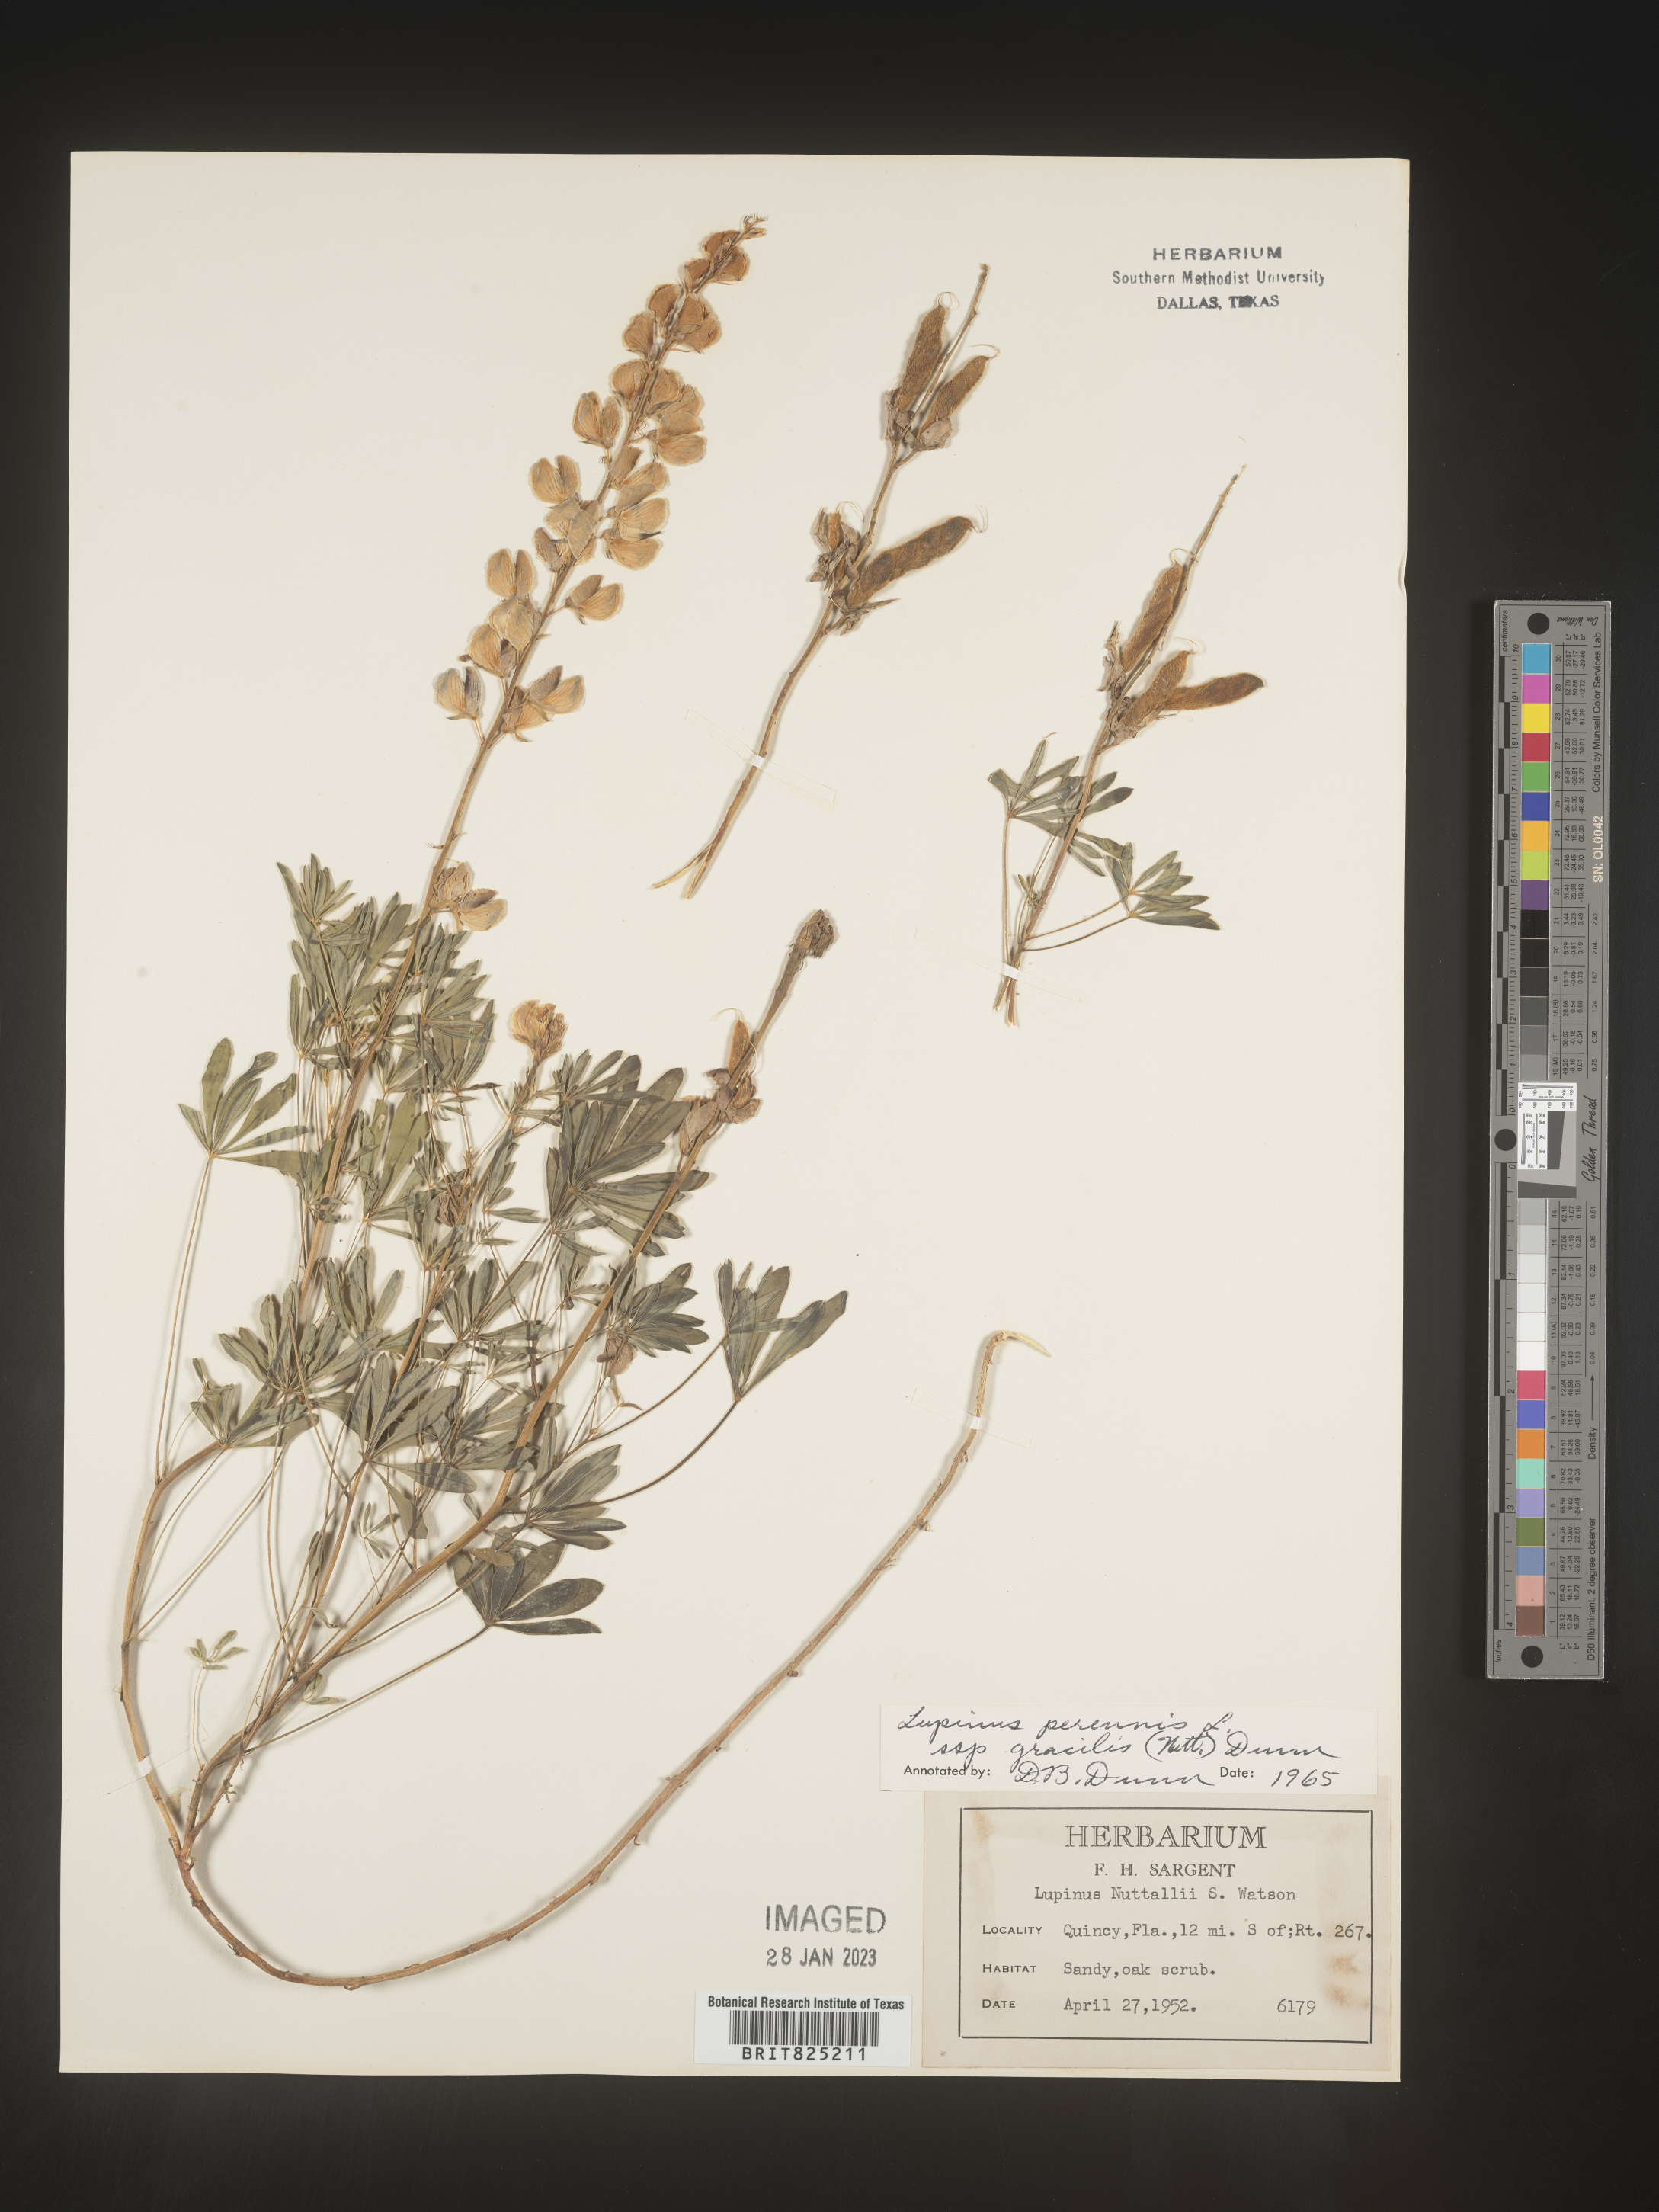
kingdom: Plantae
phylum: Tracheophyta
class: Magnoliopsida
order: Fabales
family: Fabaceae
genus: Lupinus
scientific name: Lupinus perennis
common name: Sundial lupine
